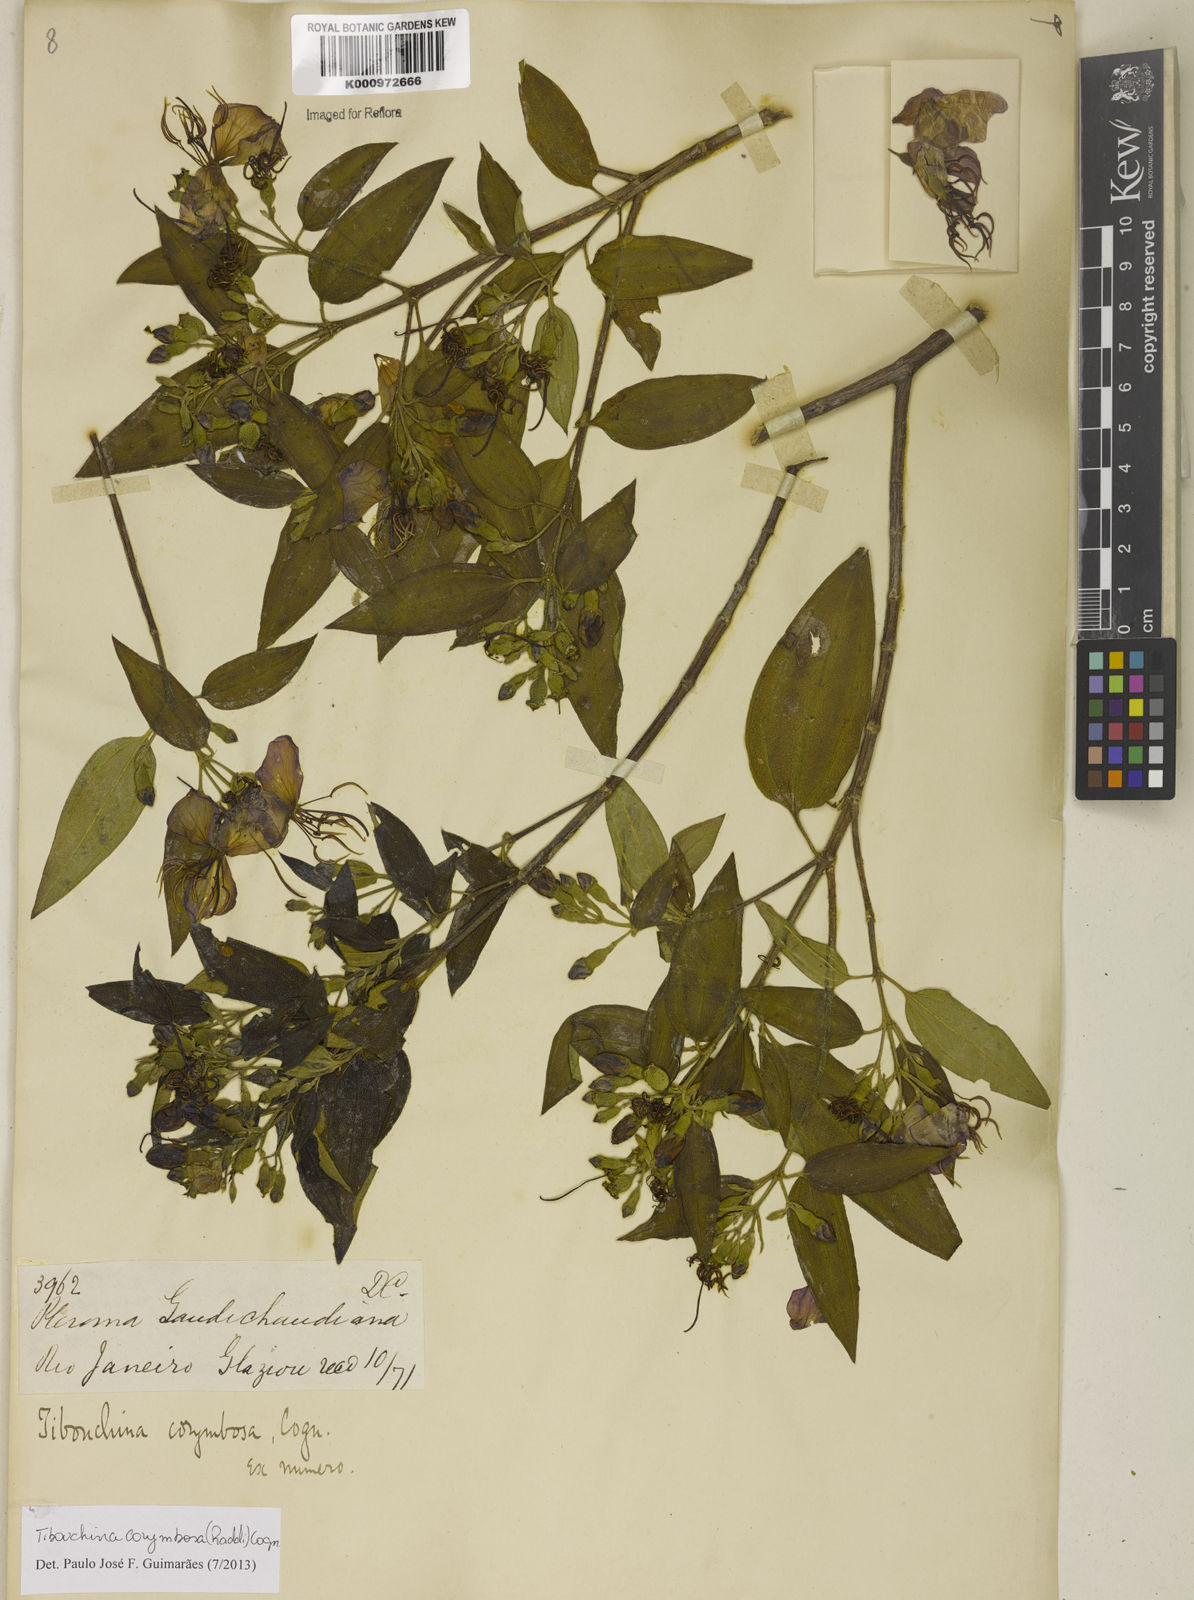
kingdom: Plantae
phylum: Tracheophyta
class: Magnoliopsida
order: Myrtales
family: Melastomataceae
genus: Pleroma
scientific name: Pleroma vimineum
